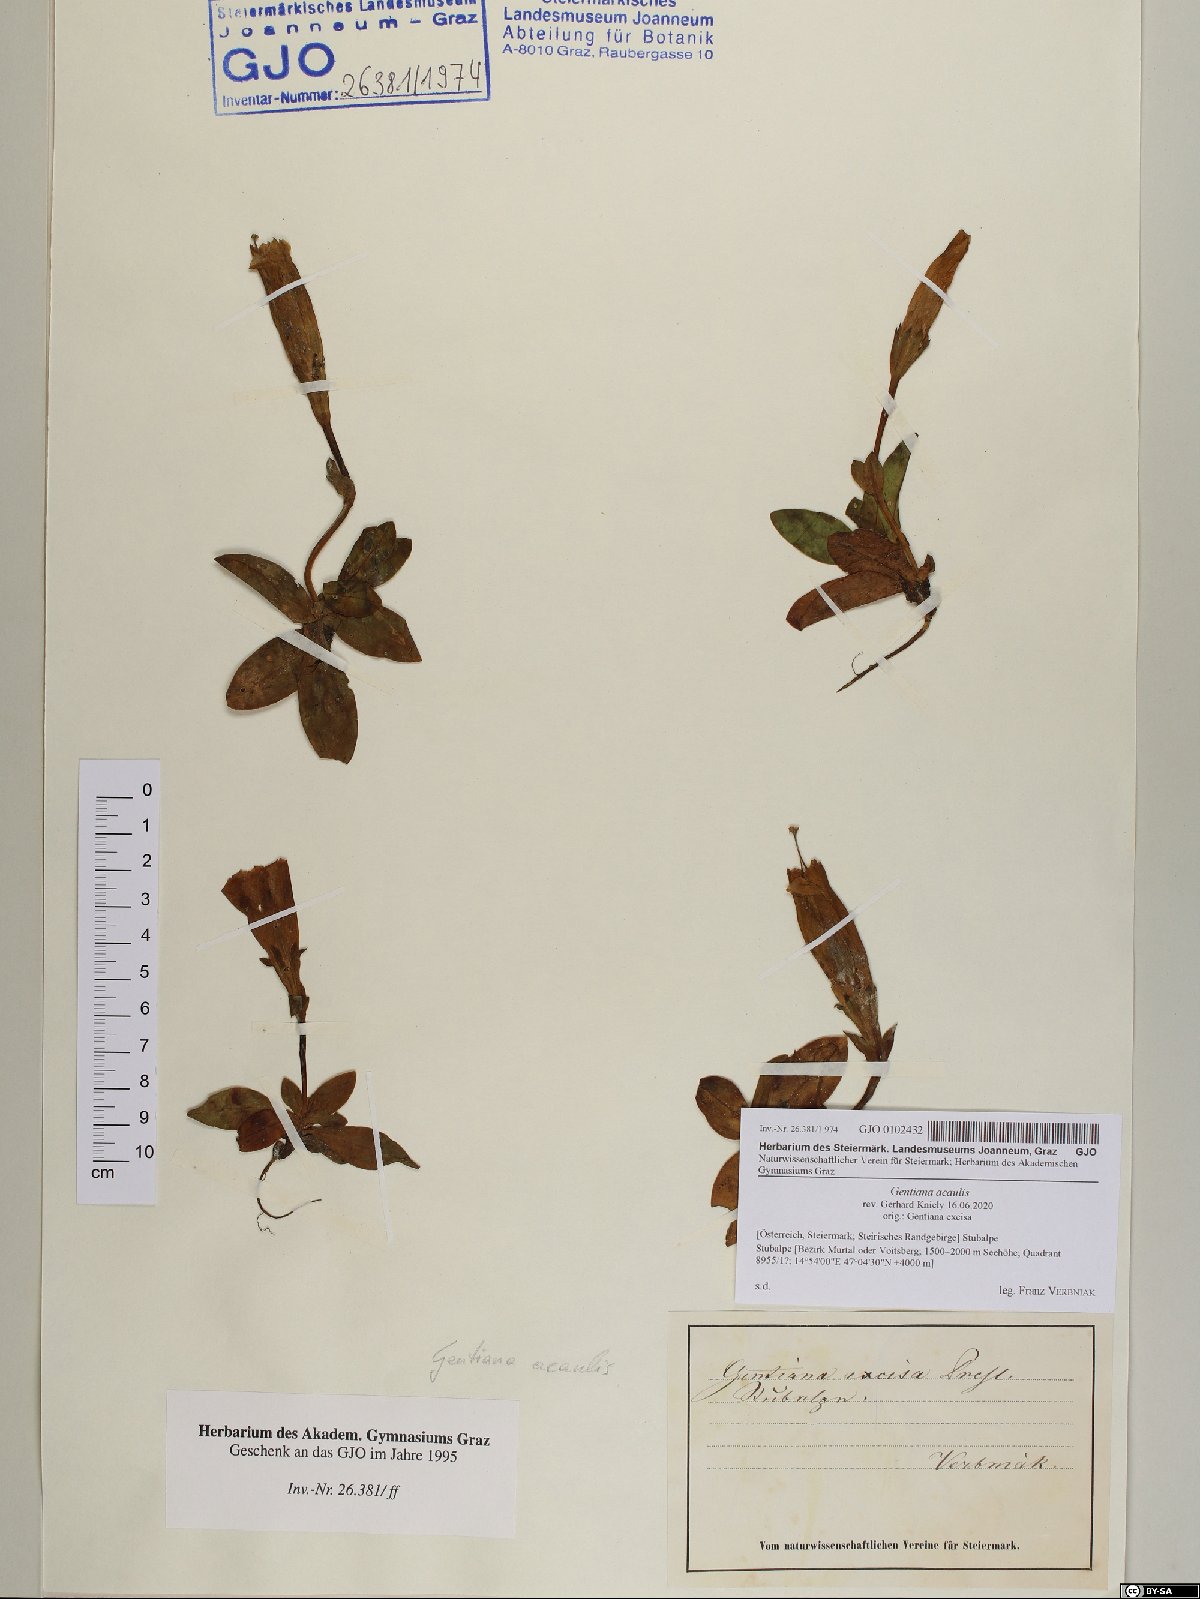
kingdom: Plantae
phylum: Tracheophyta
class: Magnoliopsida
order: Gentianales
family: Gentianaceae
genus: Gentiana
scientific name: Gentiana acaulis
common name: Trumpet gentian
